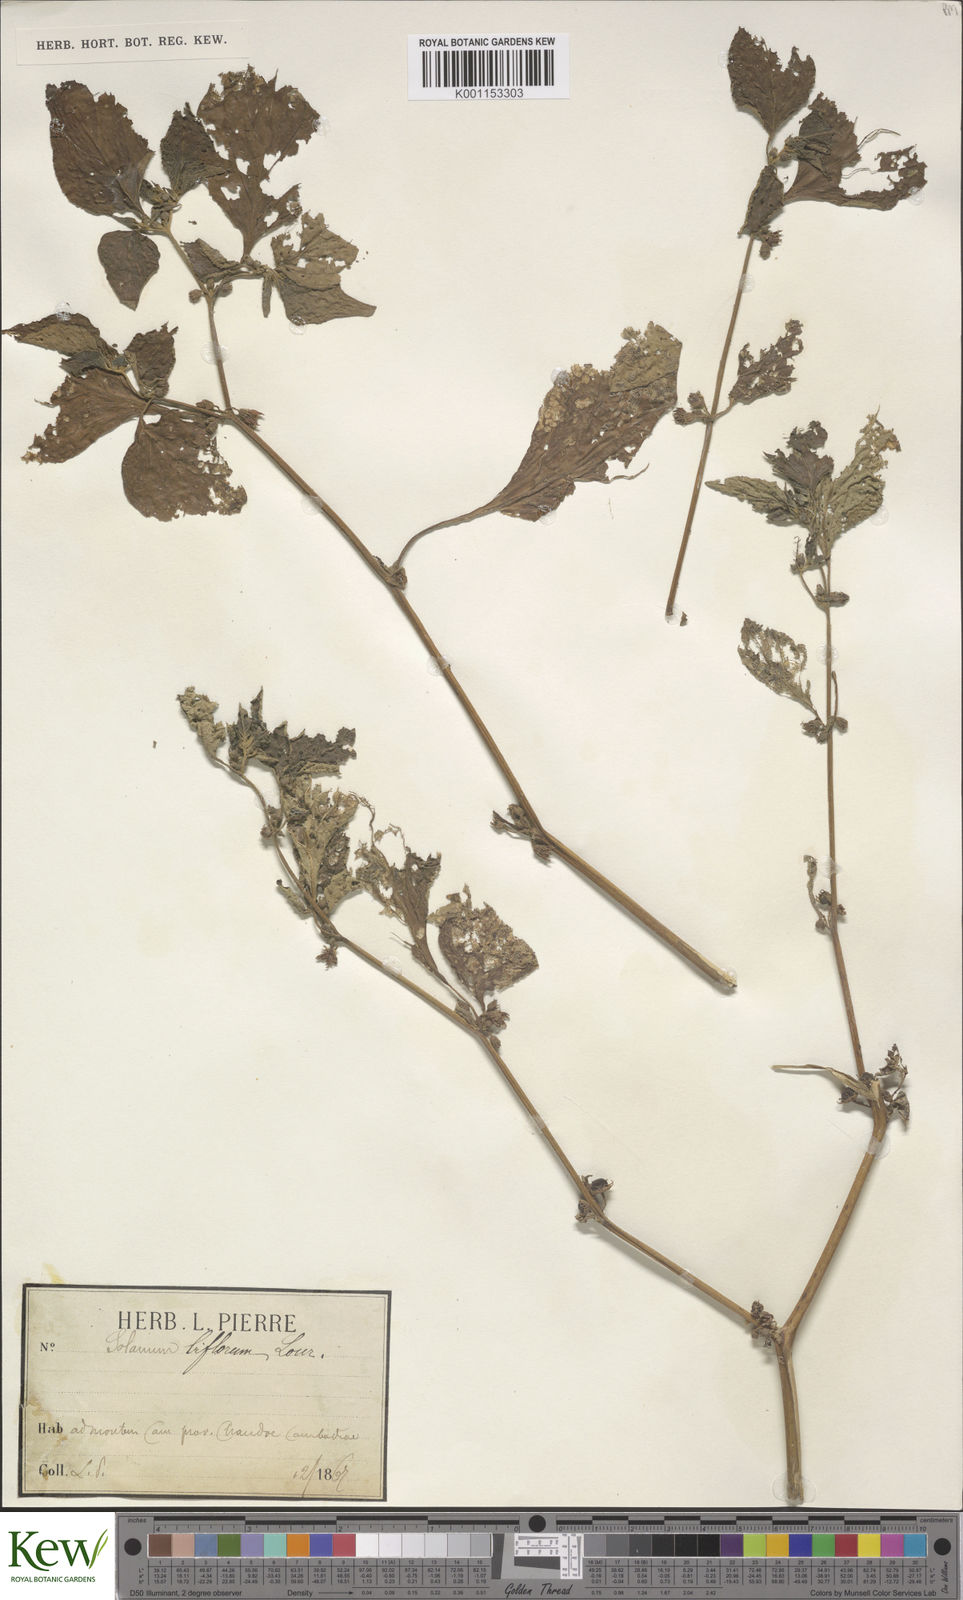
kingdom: Plantae
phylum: Tracheophyta
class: Magnoliopsida
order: Solanales
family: Solanaceae
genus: Lycianthes
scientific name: Lycianthes biflora
